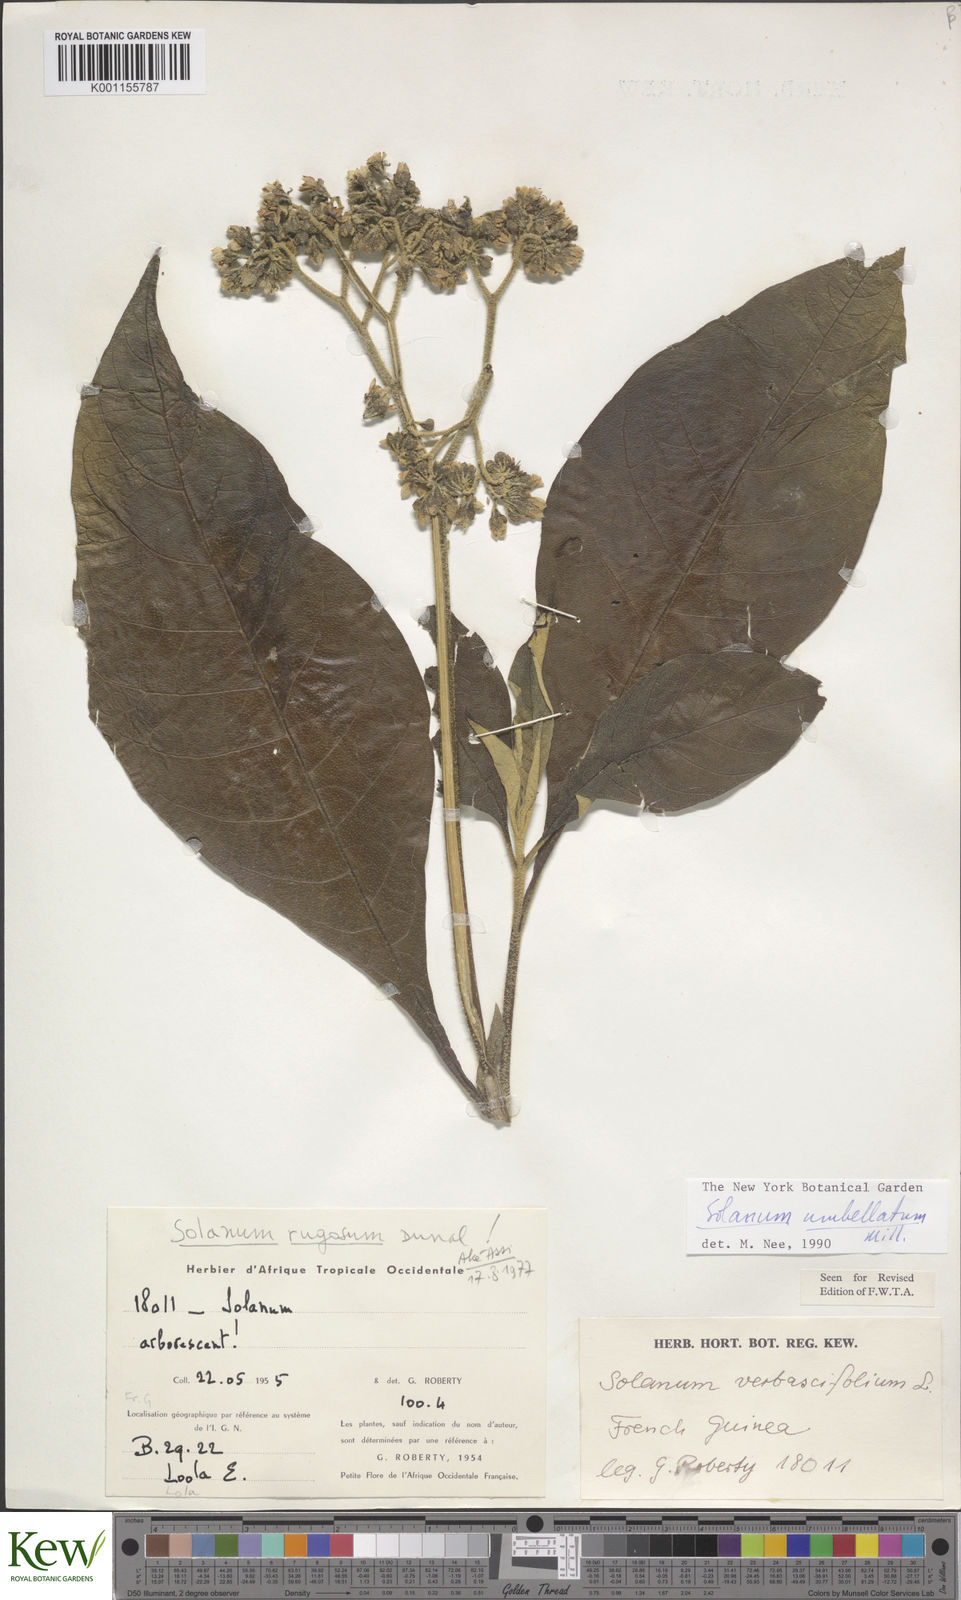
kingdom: Plantae
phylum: Tracheophyta
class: Magnoliopsida
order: Solanales
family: Solanaceae
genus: Solanum
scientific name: Solanum rugosum
